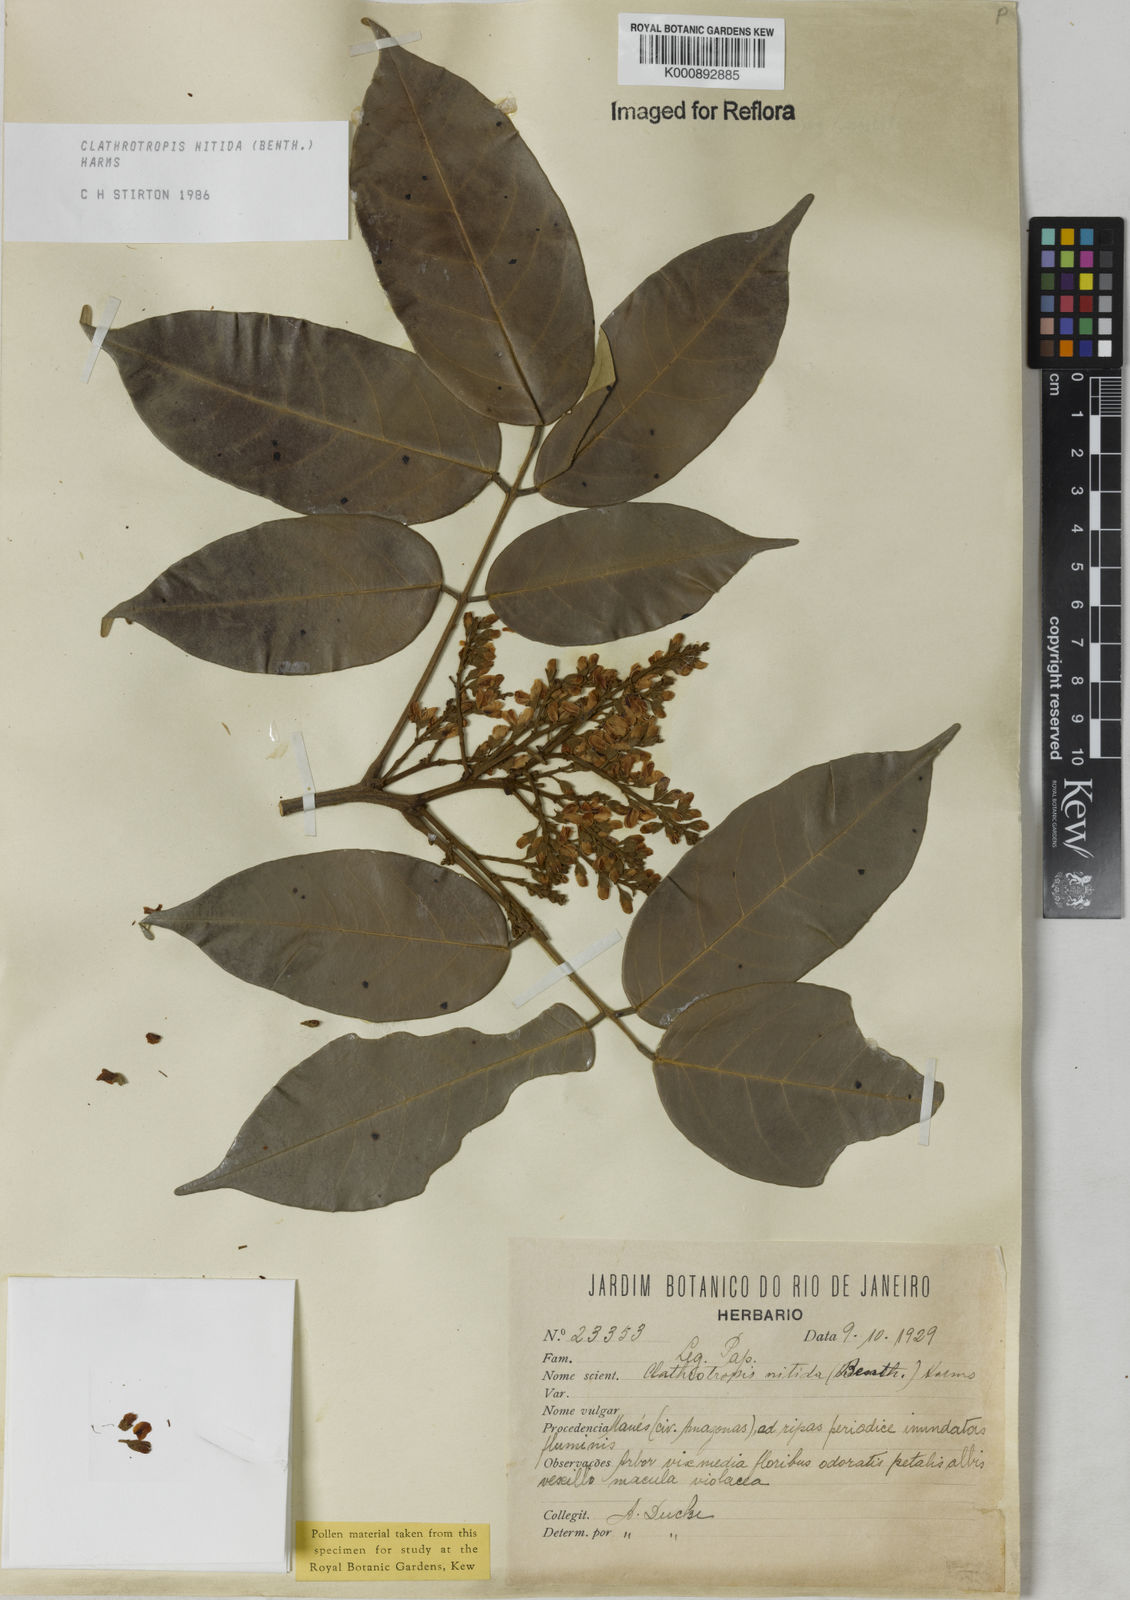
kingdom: Plantae
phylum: Tracheophyta
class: Magnoliopsida
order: Fabales
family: Fabaceae
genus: Clathrotropis
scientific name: Clathrotropis nitida
